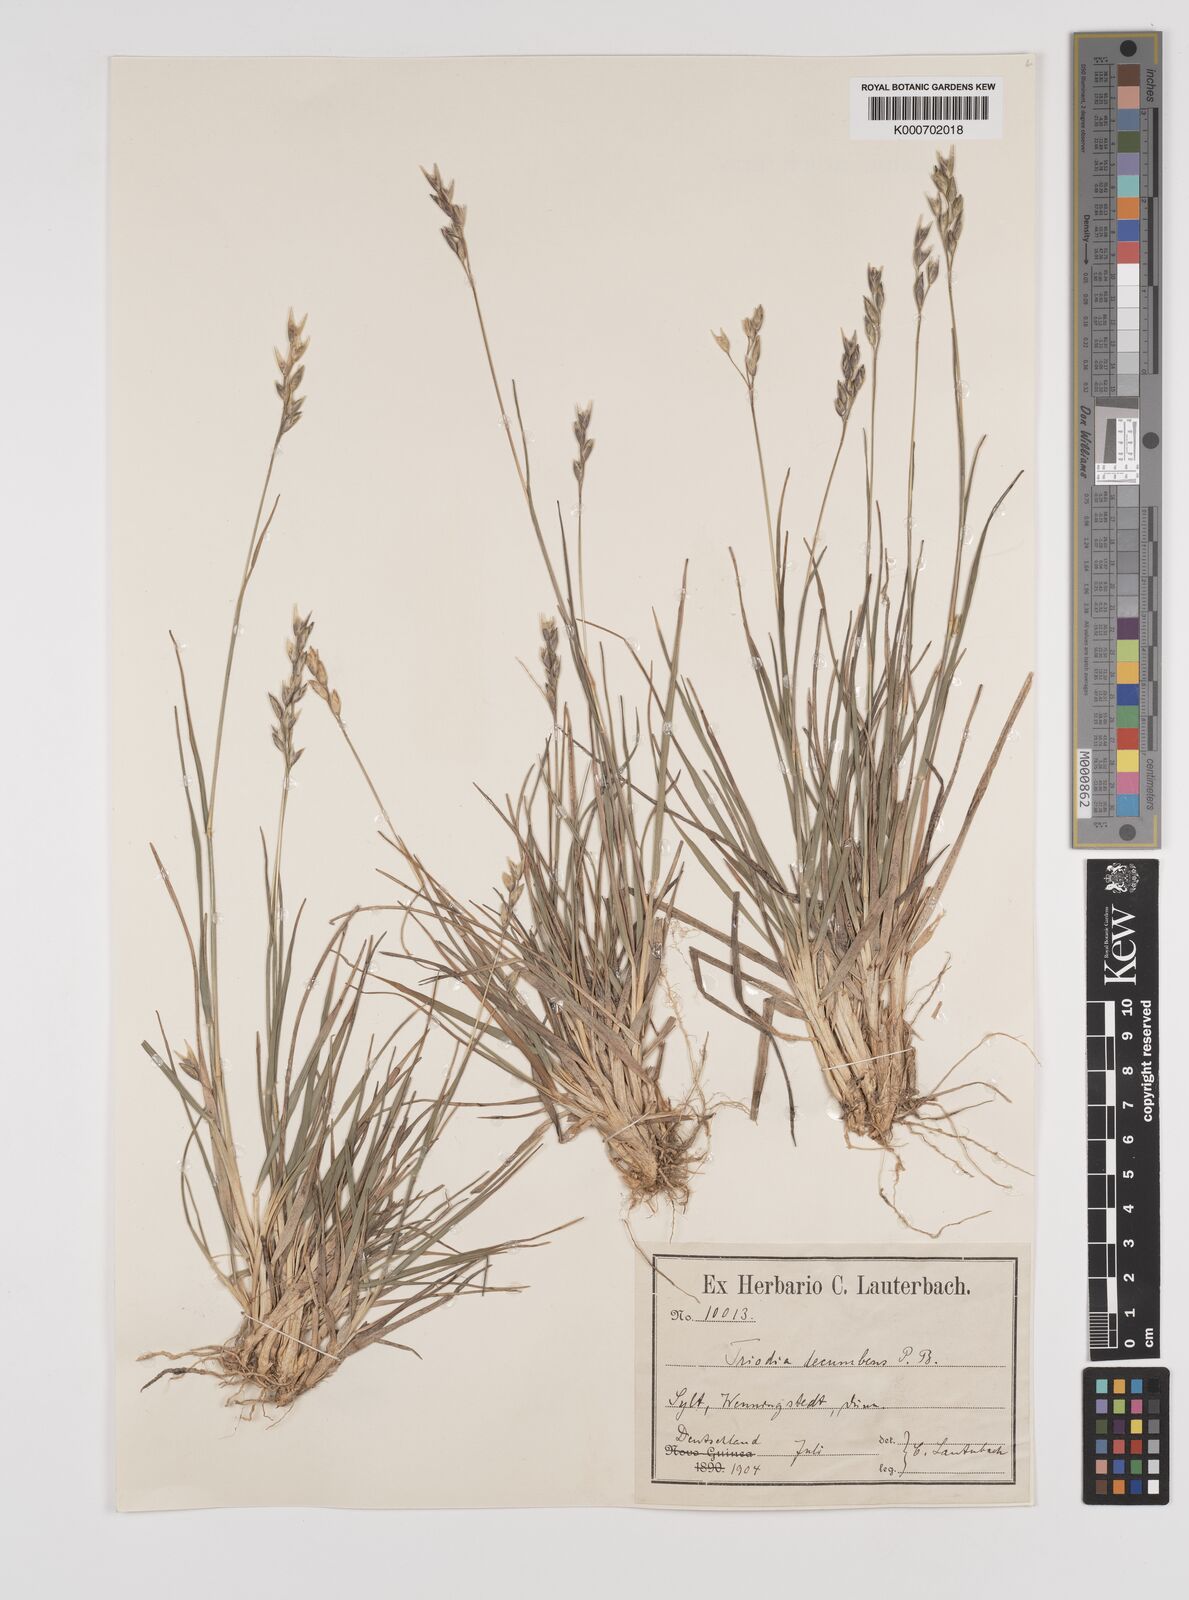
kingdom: Plantae
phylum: Tracheophyta
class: Liliopsida
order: Poales
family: Poaceae
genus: Danthonia
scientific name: Danthonia decumbens
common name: Common heathgrass
